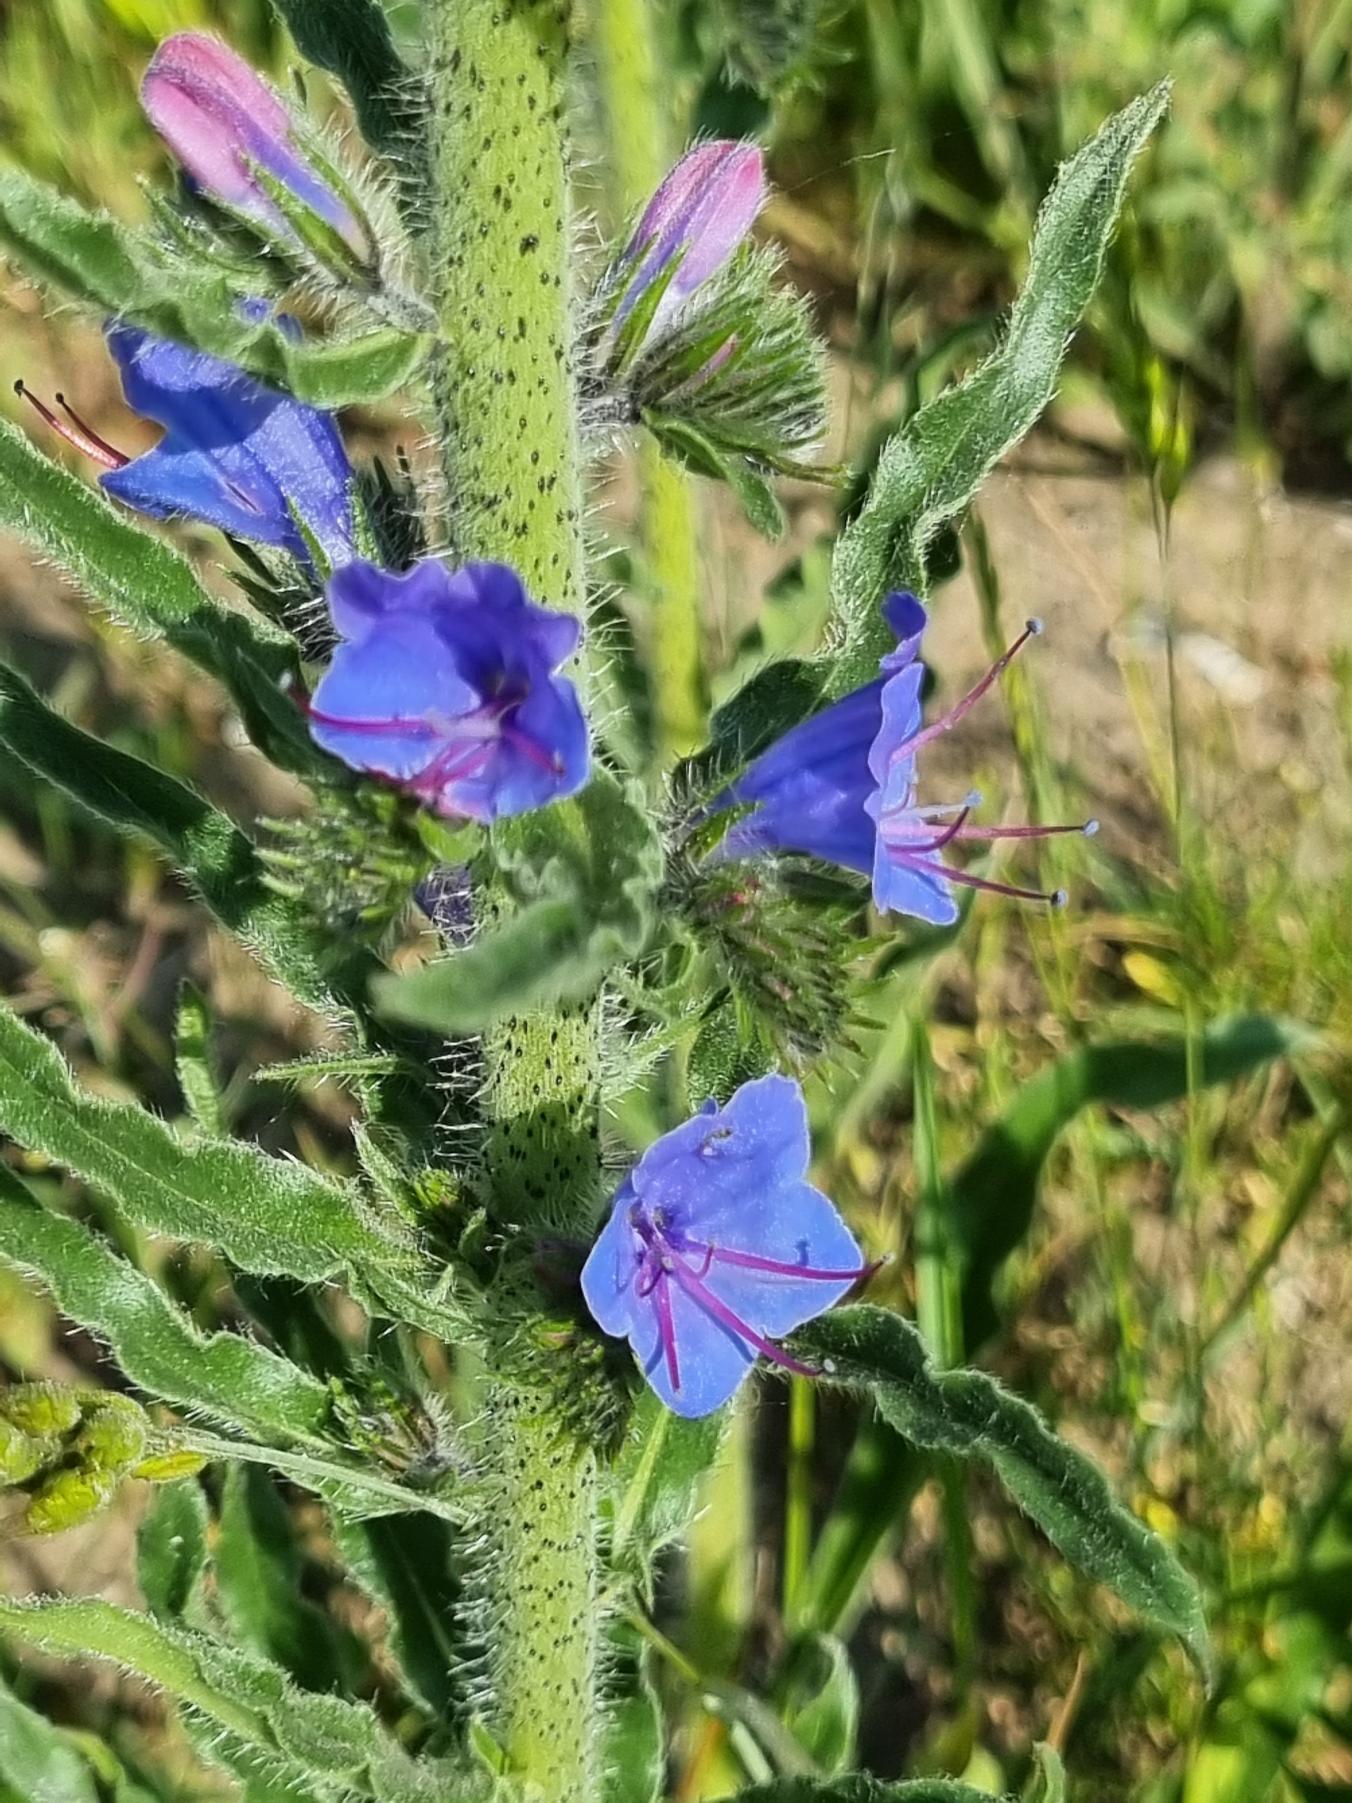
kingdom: Plantae
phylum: Tracheophyta
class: Magnoliopsida
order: Boraginales
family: Boraginaceae
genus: Echium
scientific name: Echium vulgare
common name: Slangehoved
